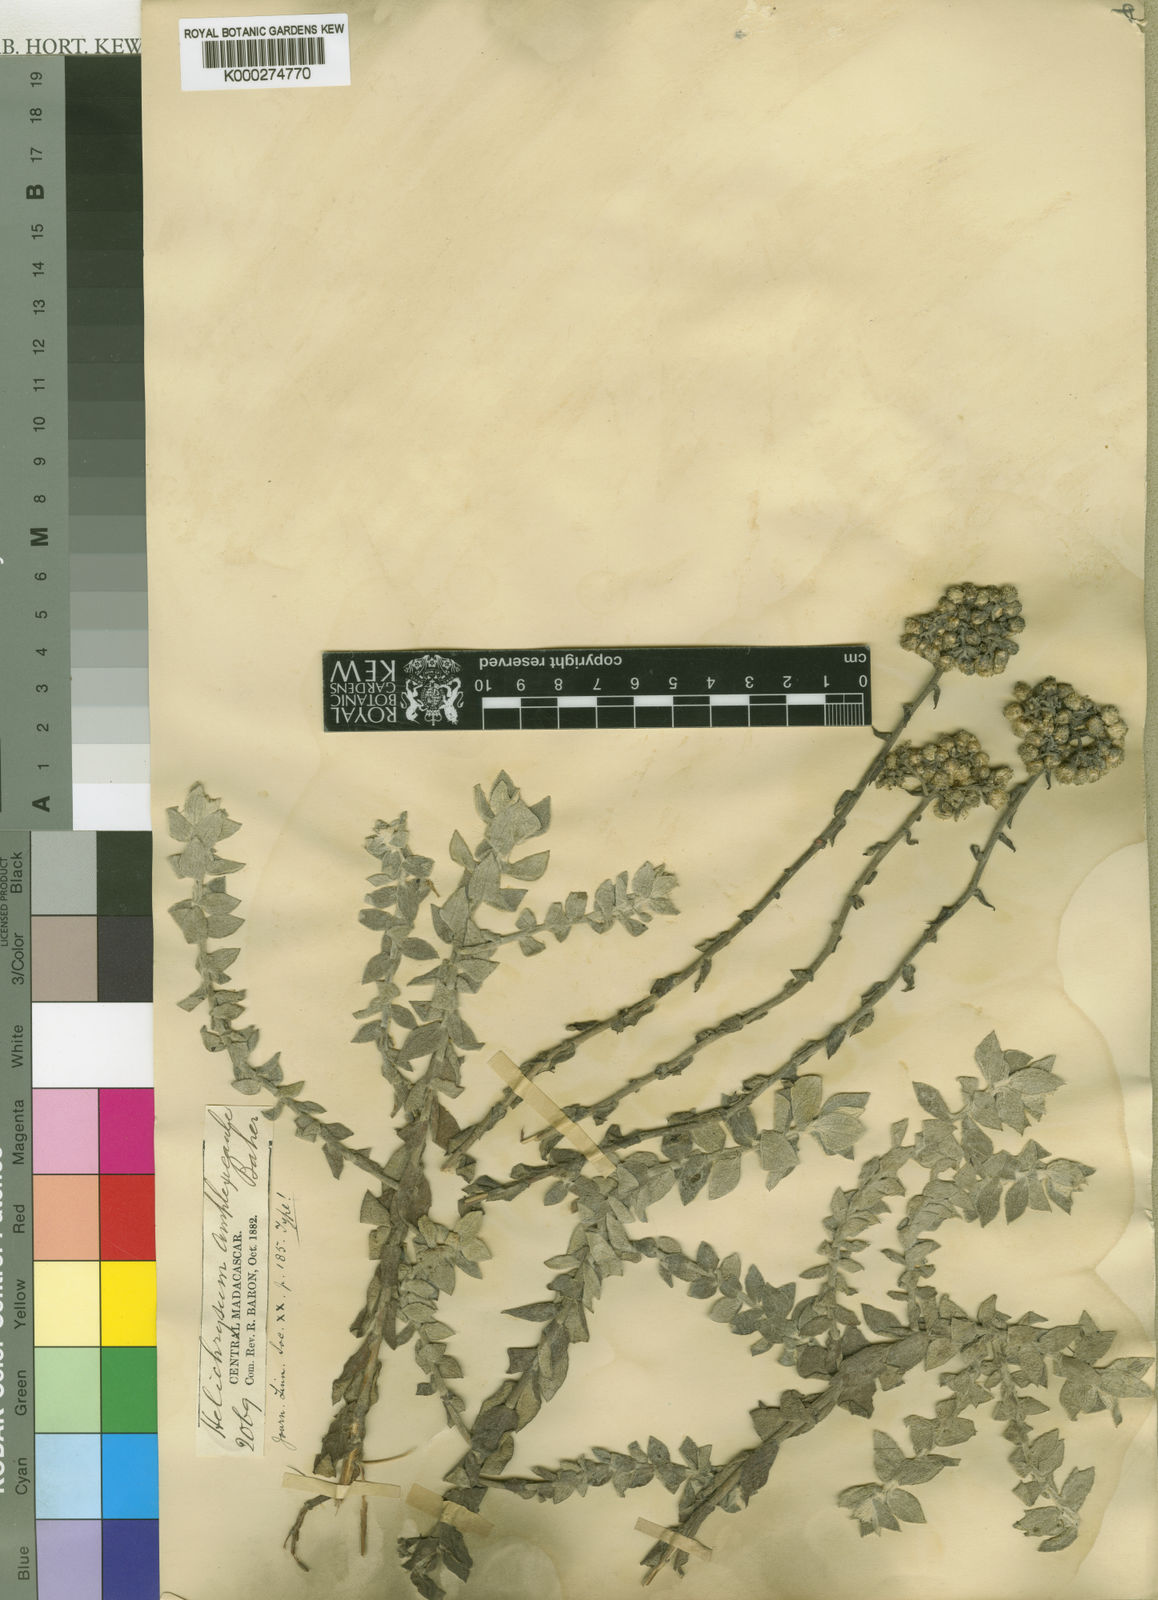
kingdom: Plantae
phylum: Tracheophyta
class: Magnoliopsida
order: Asterales
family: Asteraceae
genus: Helichrysum
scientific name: Helichrysum bakeri
